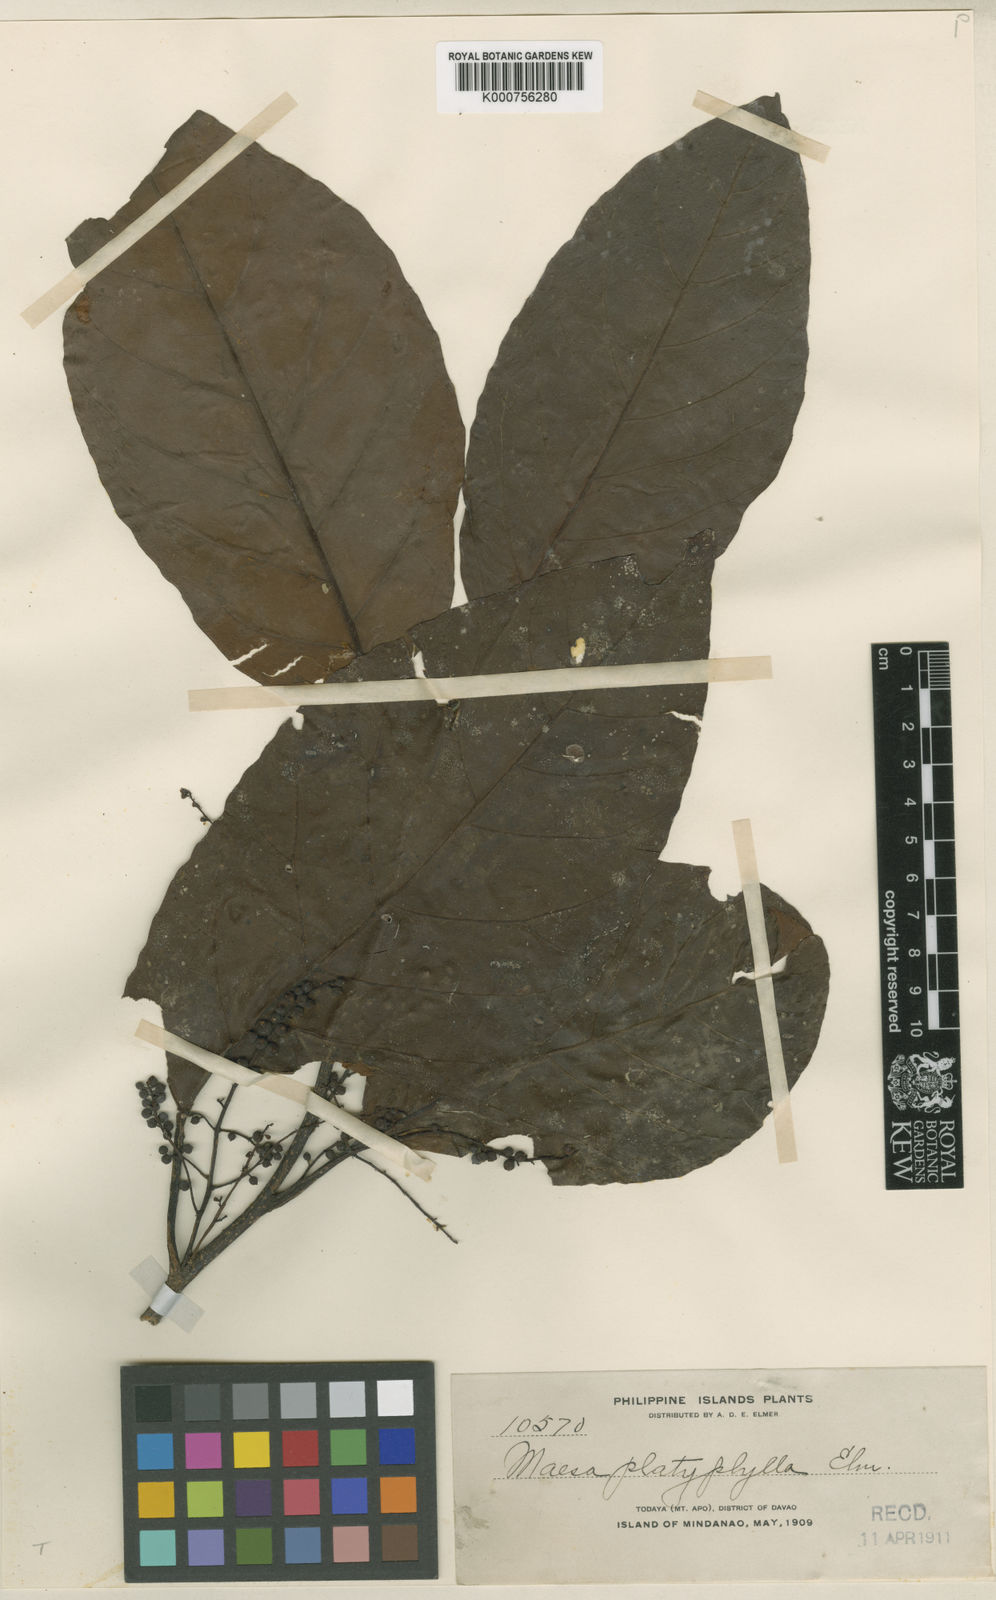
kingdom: Plantae
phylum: Tracheophyta
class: Magnoliopsida
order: Ericales
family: Primulaceae
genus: Maesa
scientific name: Maesa platyphylla
